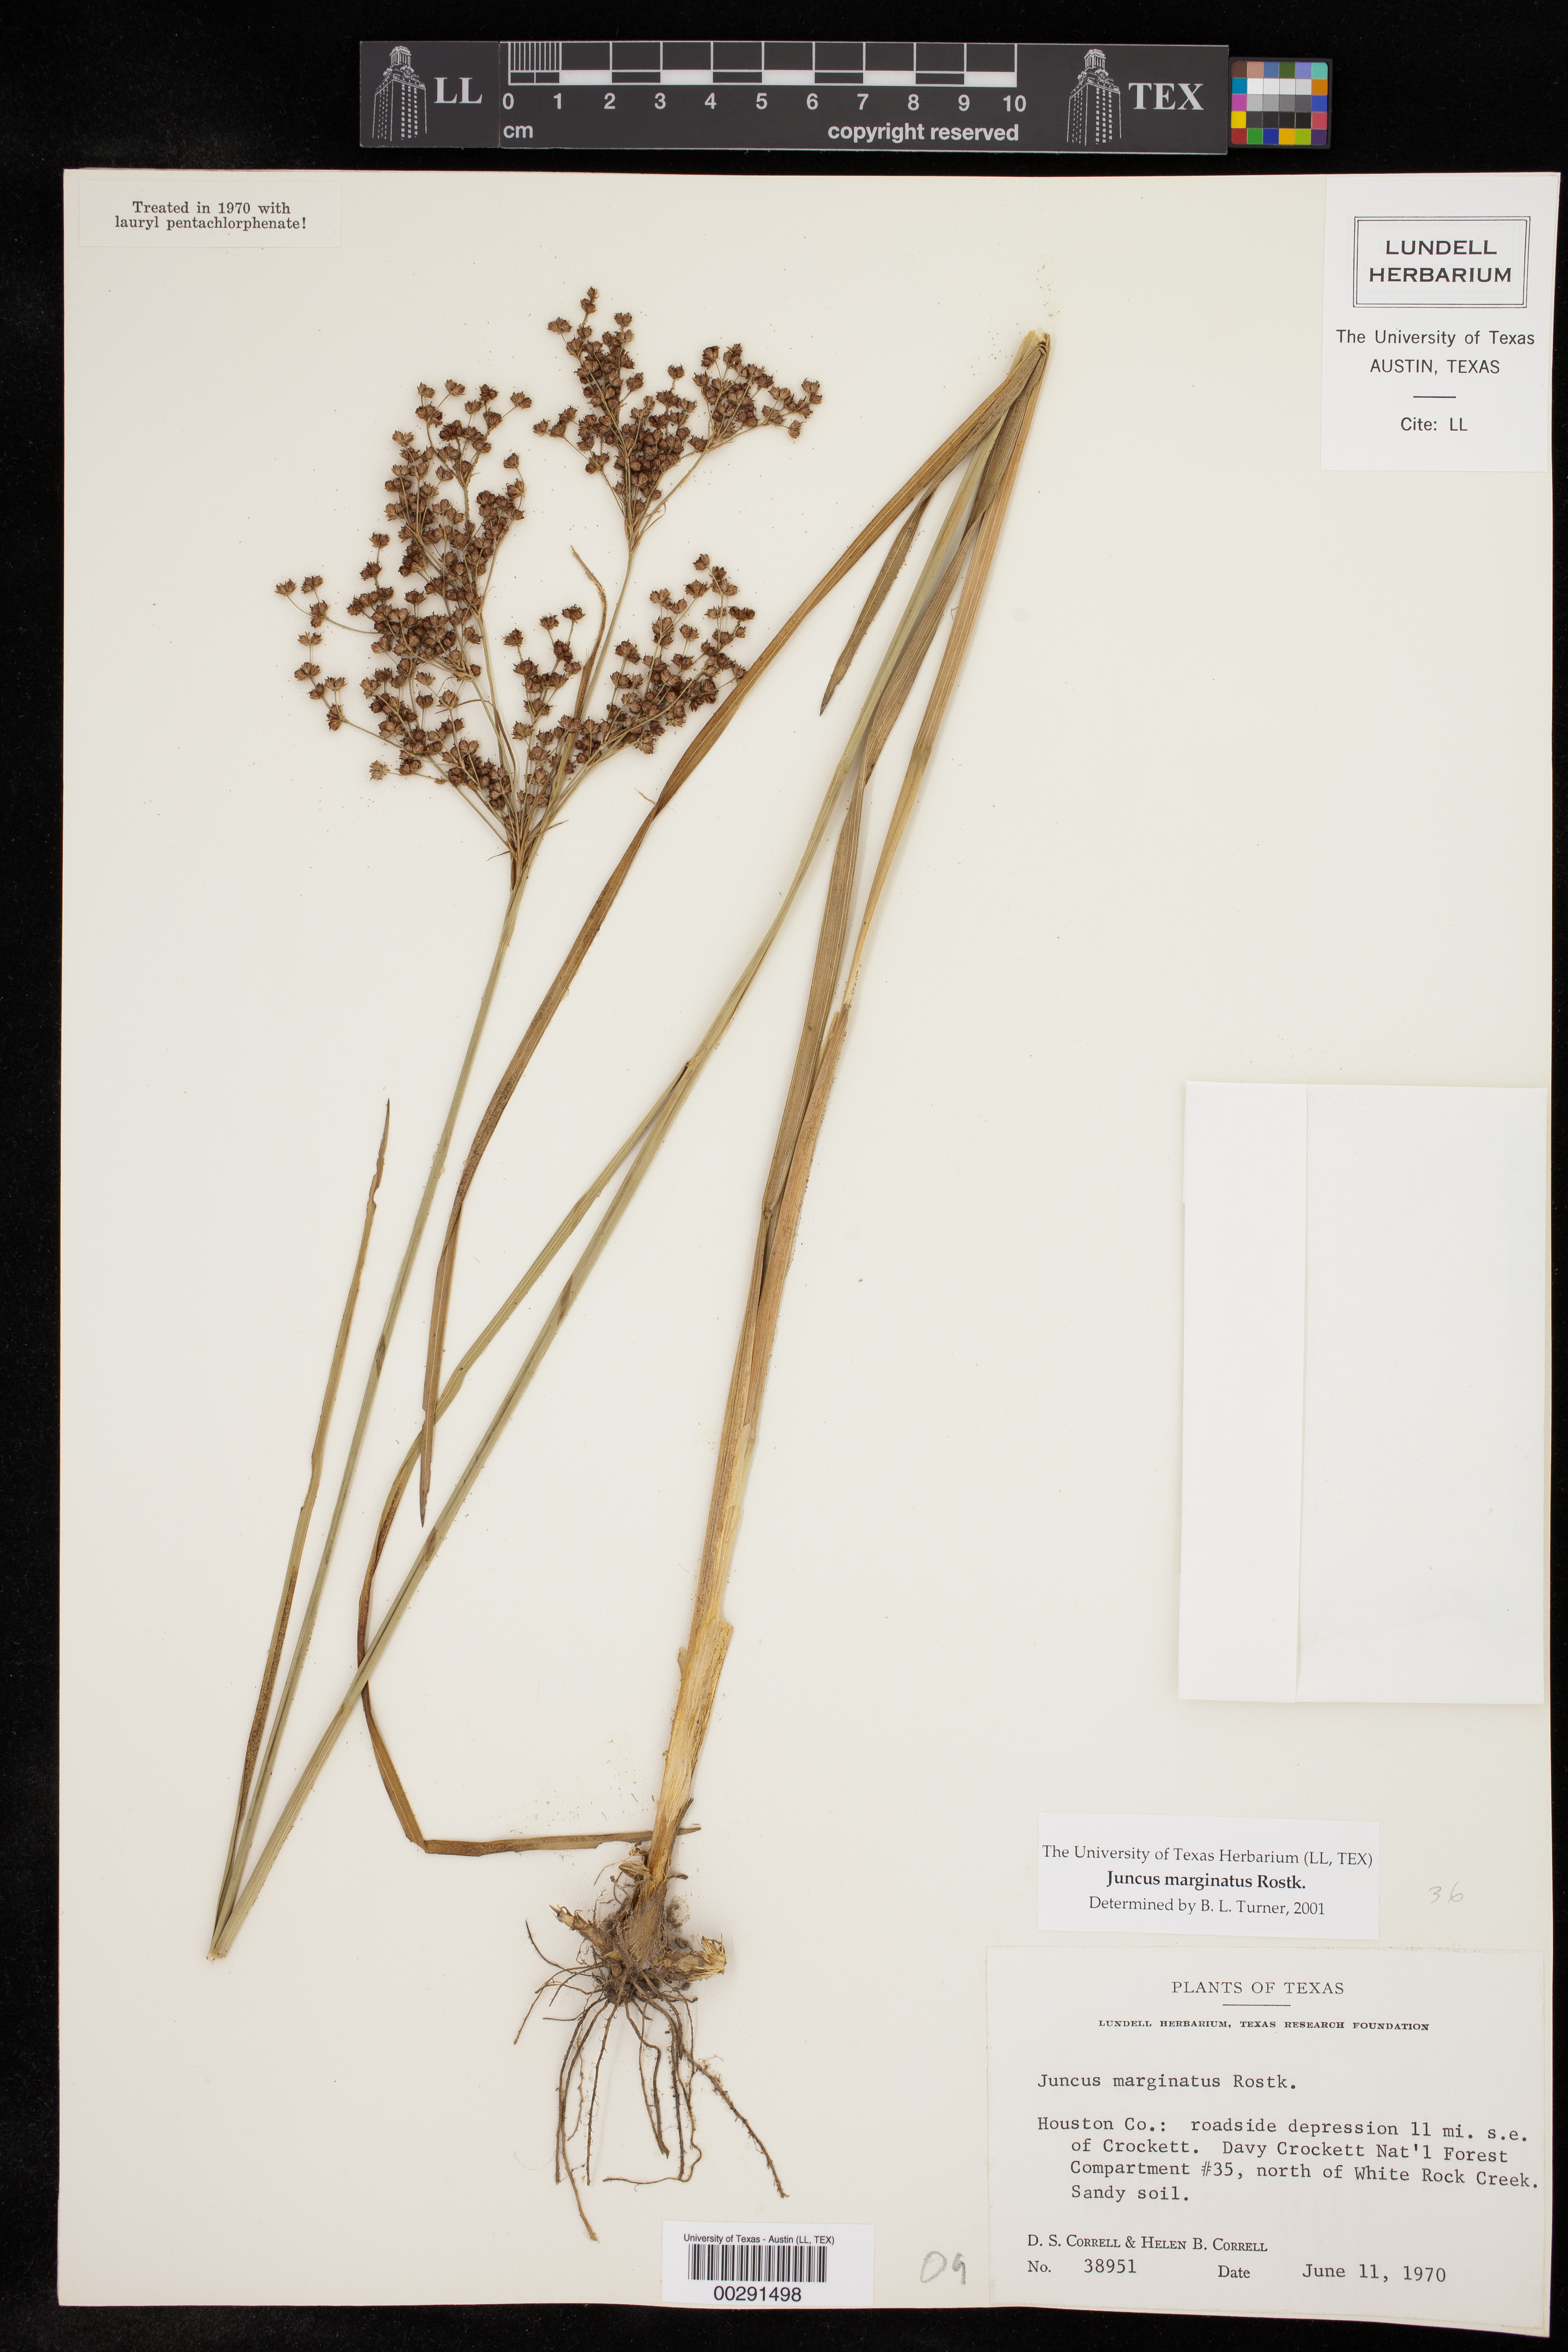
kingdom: Plantae
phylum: Tracheophyta
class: Liliopsida
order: Poales
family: Juncaceae
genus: Juncus
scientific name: Juncus marginatus
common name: Grass-leaf rush
